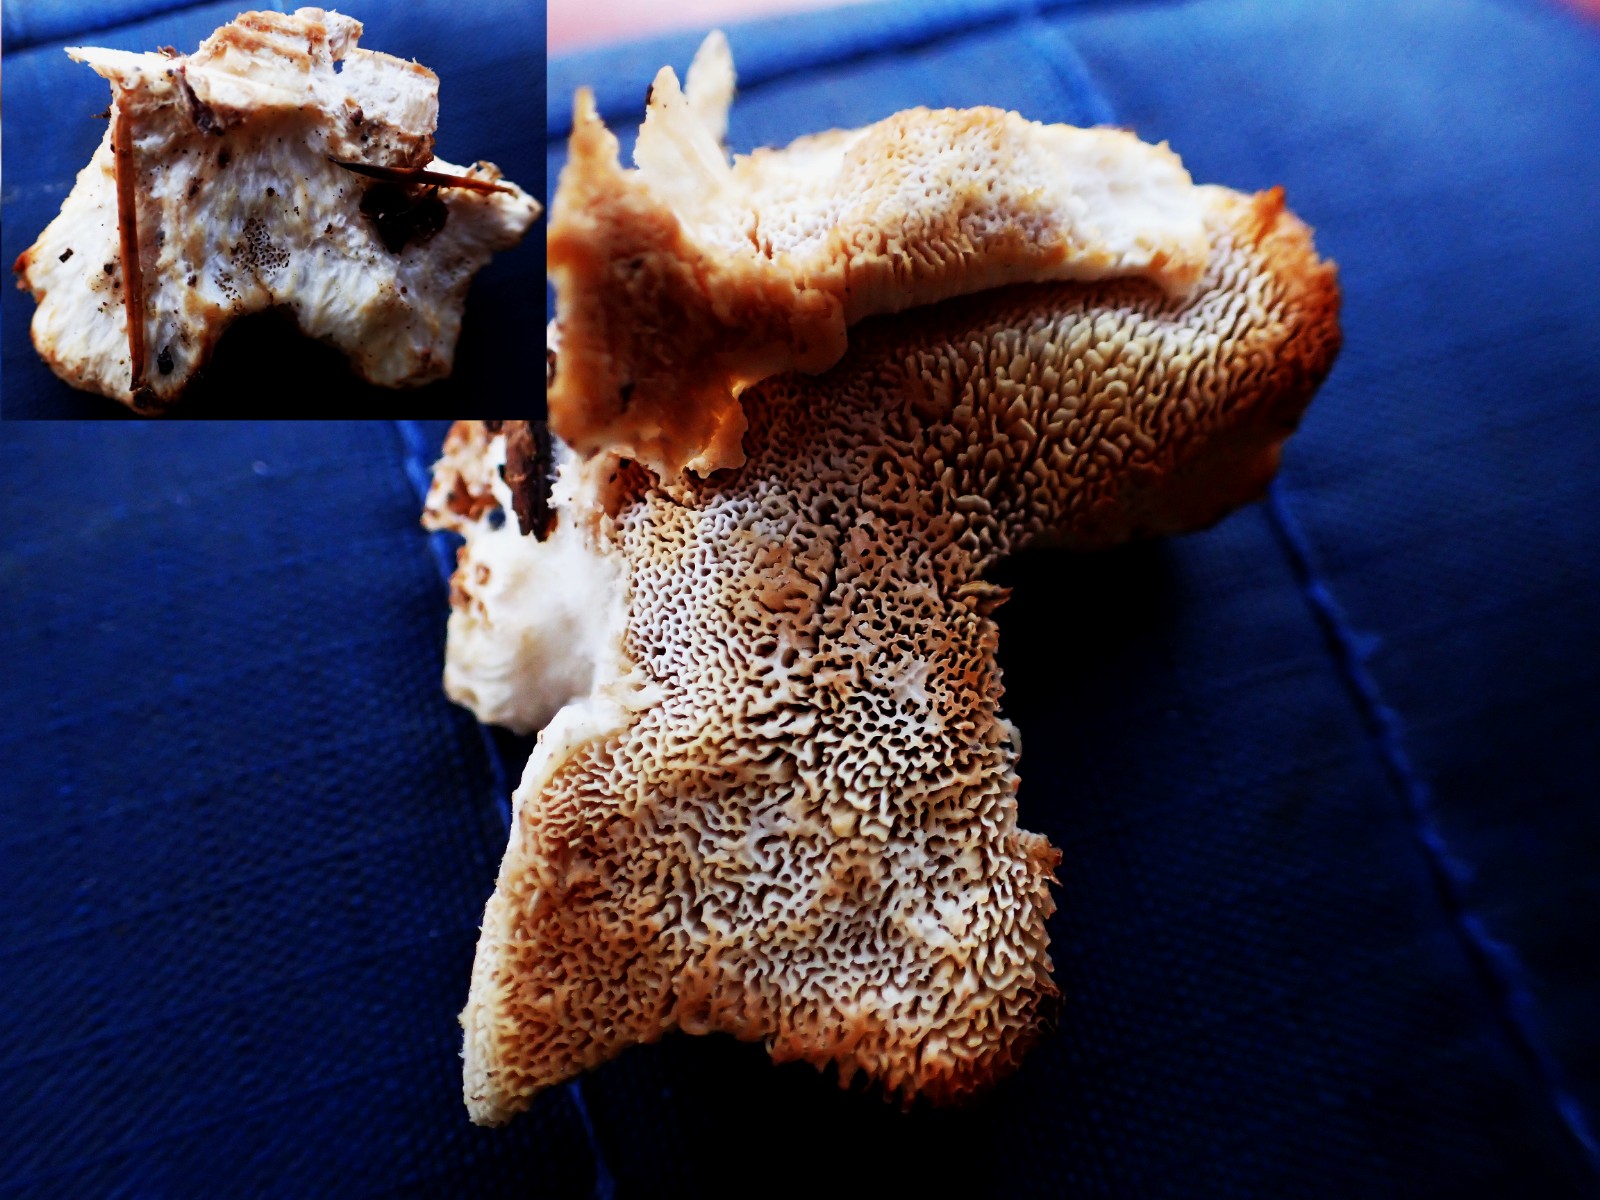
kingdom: Fungi
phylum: Basidiomycota
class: Agaricomycetes
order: Polyporales
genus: Fuscopostia
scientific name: Fuscopostia fragilis
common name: brunende kødporesvamp
